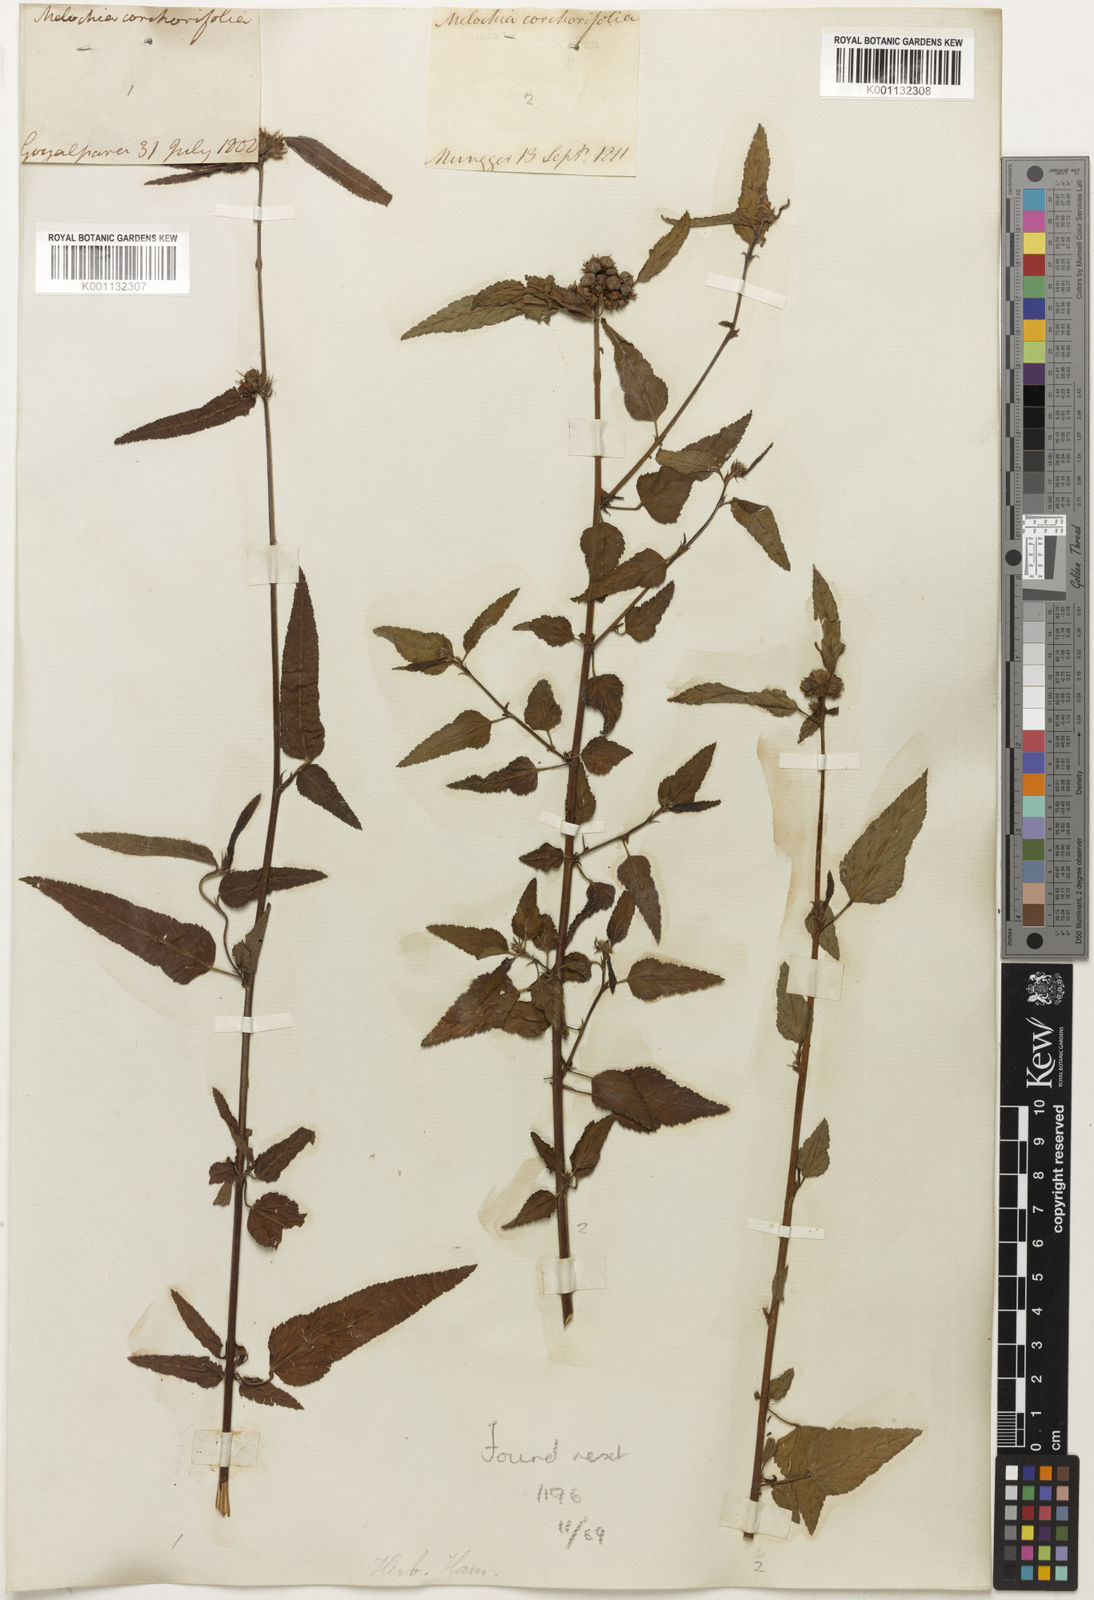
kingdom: Plantae
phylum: Tracheophyta
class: Magnoliopsida
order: Malvales
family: Malvaceae
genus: Melochia
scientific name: Melochia corchorifolia
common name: Chocolateweed
